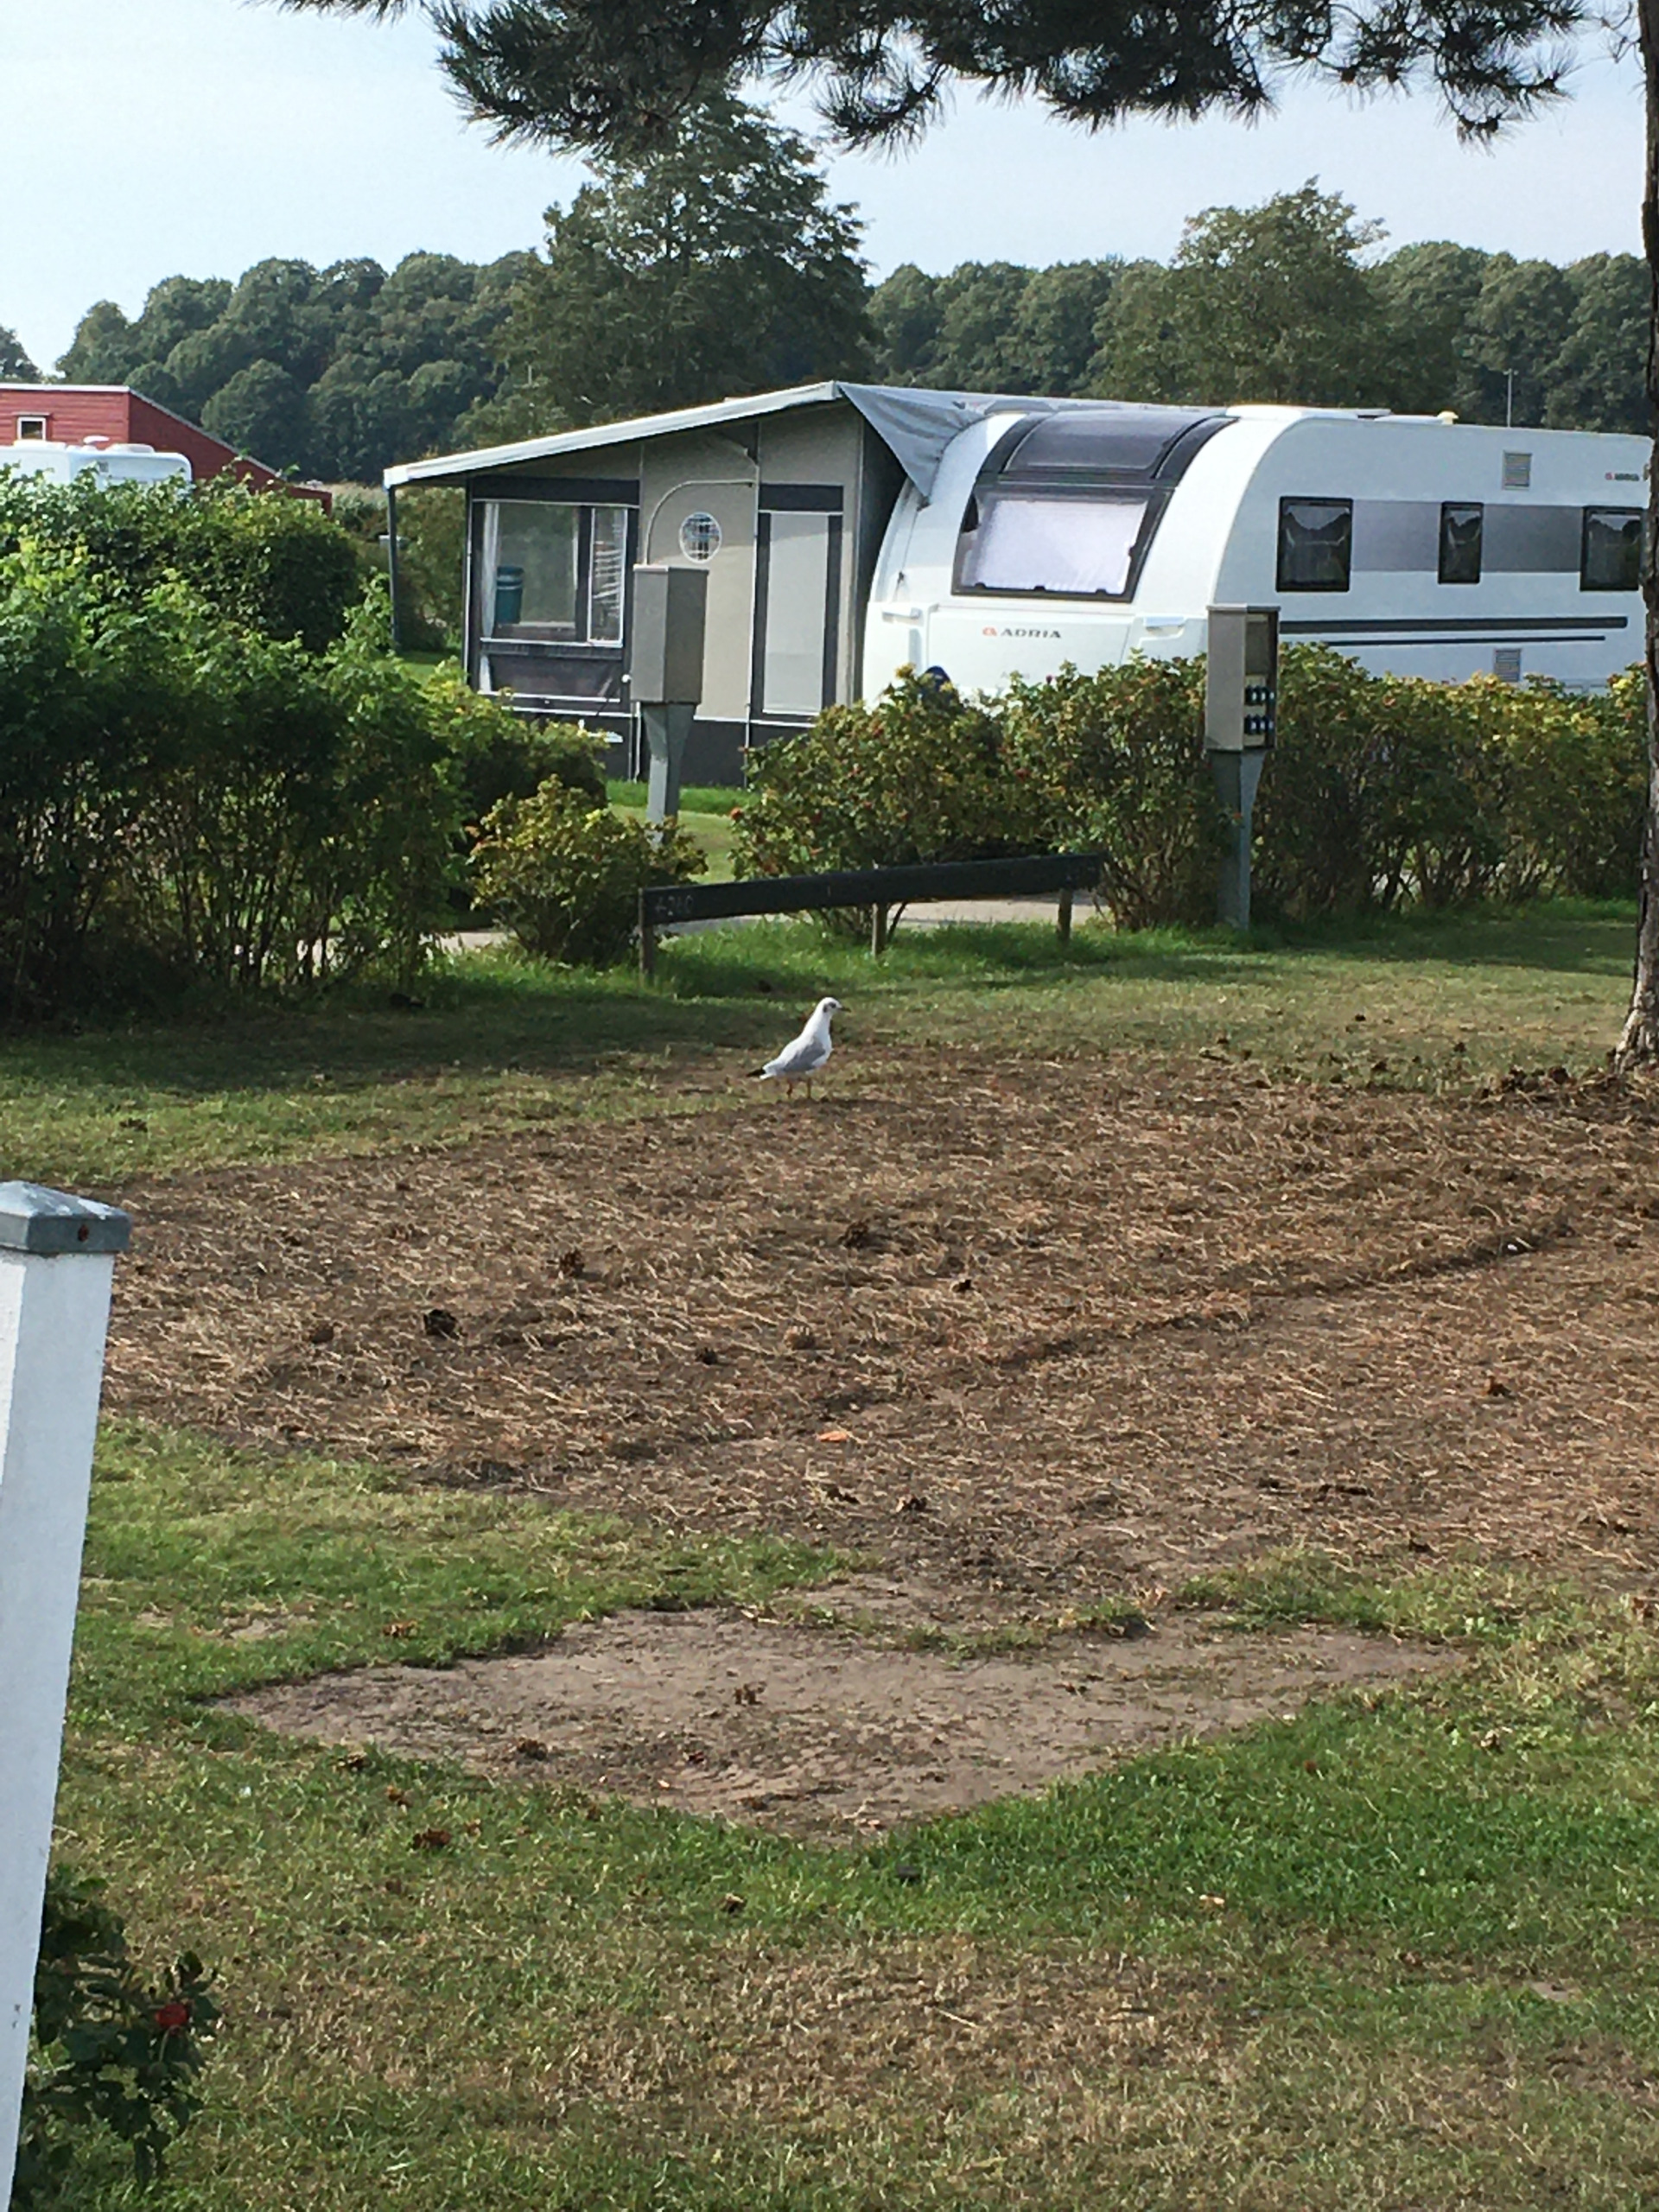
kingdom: Animalia
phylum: Chordata
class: Aves
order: Charadriiformes
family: Laridae
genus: Chroicocephalus
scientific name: Chroicocephalus ridibundus
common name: Hættemåge
